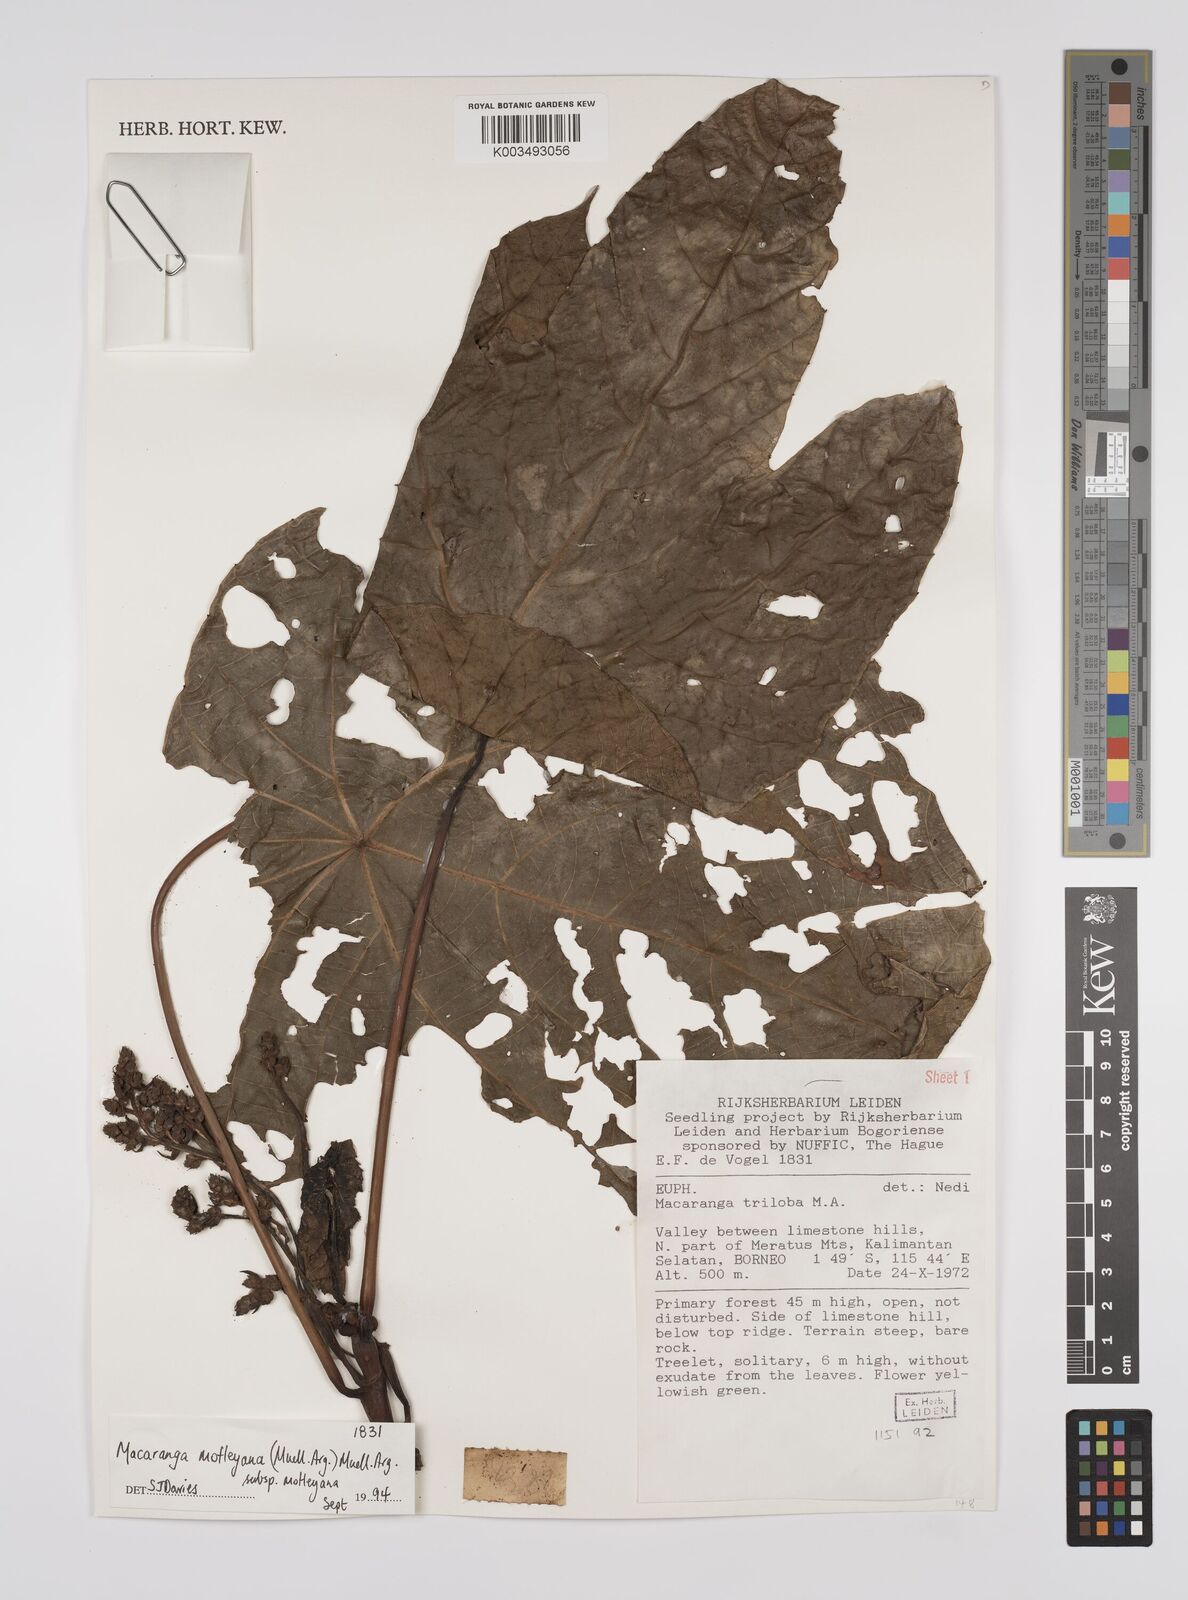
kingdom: Plantae
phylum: Tracheophyta
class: Magnoliopsida
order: Malpighiales
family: Euphorbiaceae
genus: Macaranga
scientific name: Macaranga motleyana
